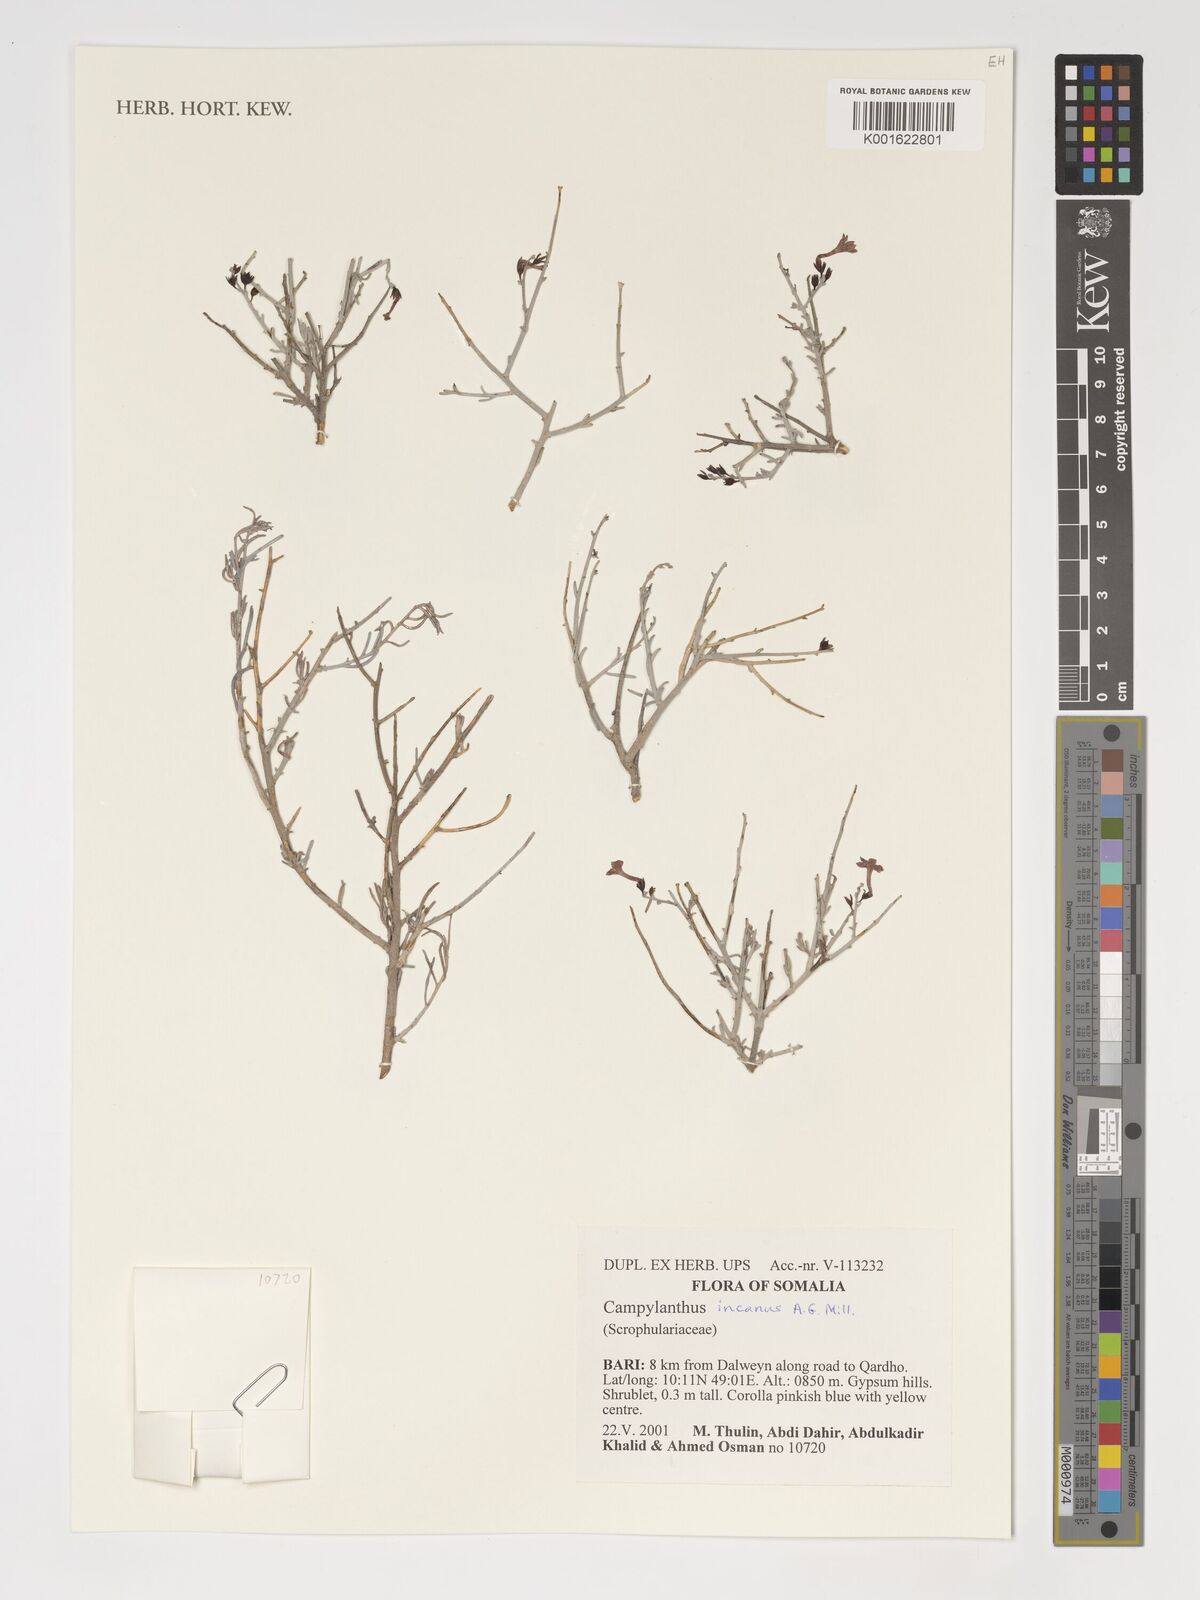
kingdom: Plantae
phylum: Tracheophyta
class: Magnoliopsida
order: Lamiales
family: Plantaginaceae
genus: Campylanthus
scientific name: Campylanthus incanus
